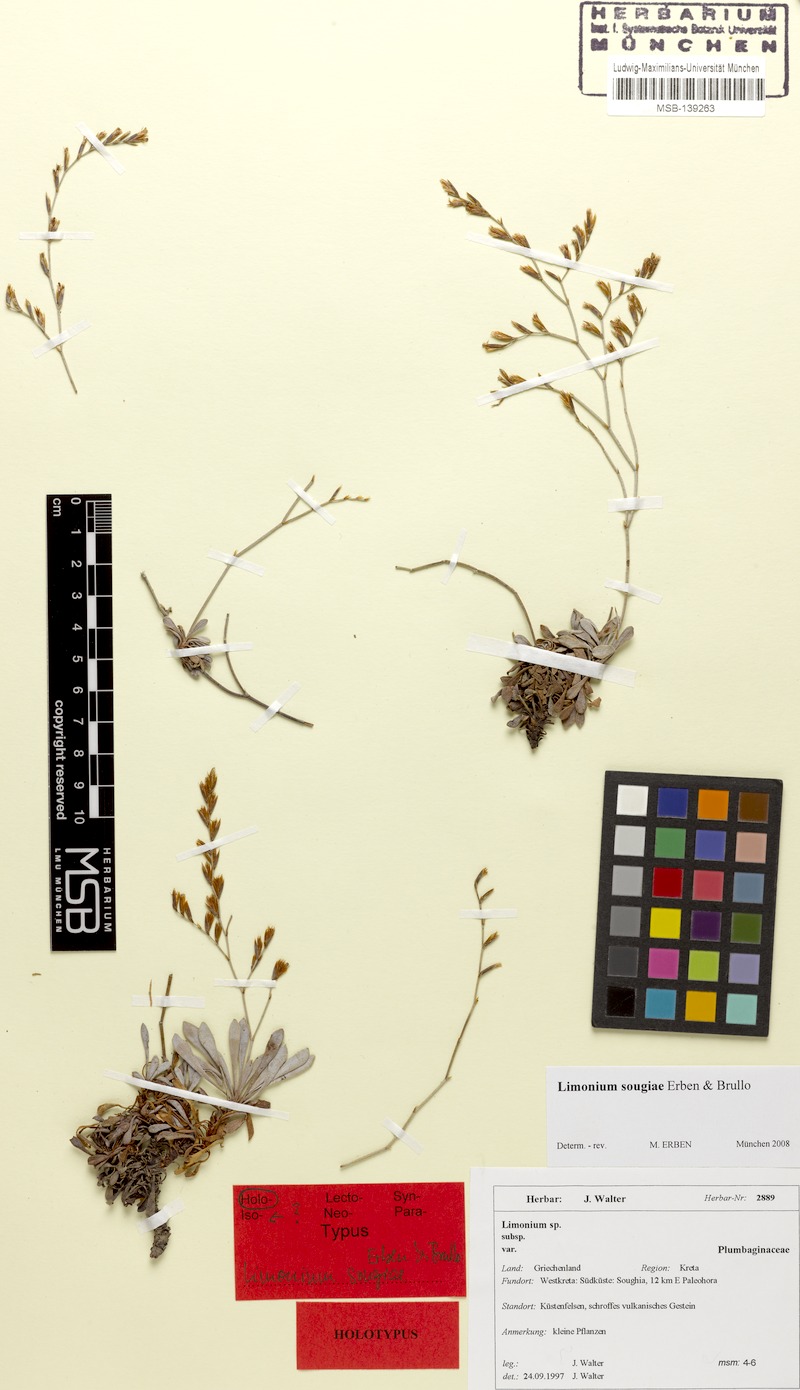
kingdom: Plantae
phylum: Tracheophyta
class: Magnoliopsida
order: Caryophyllales
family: Plumbaginaceae
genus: Limonium
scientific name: Limonium sougiae
